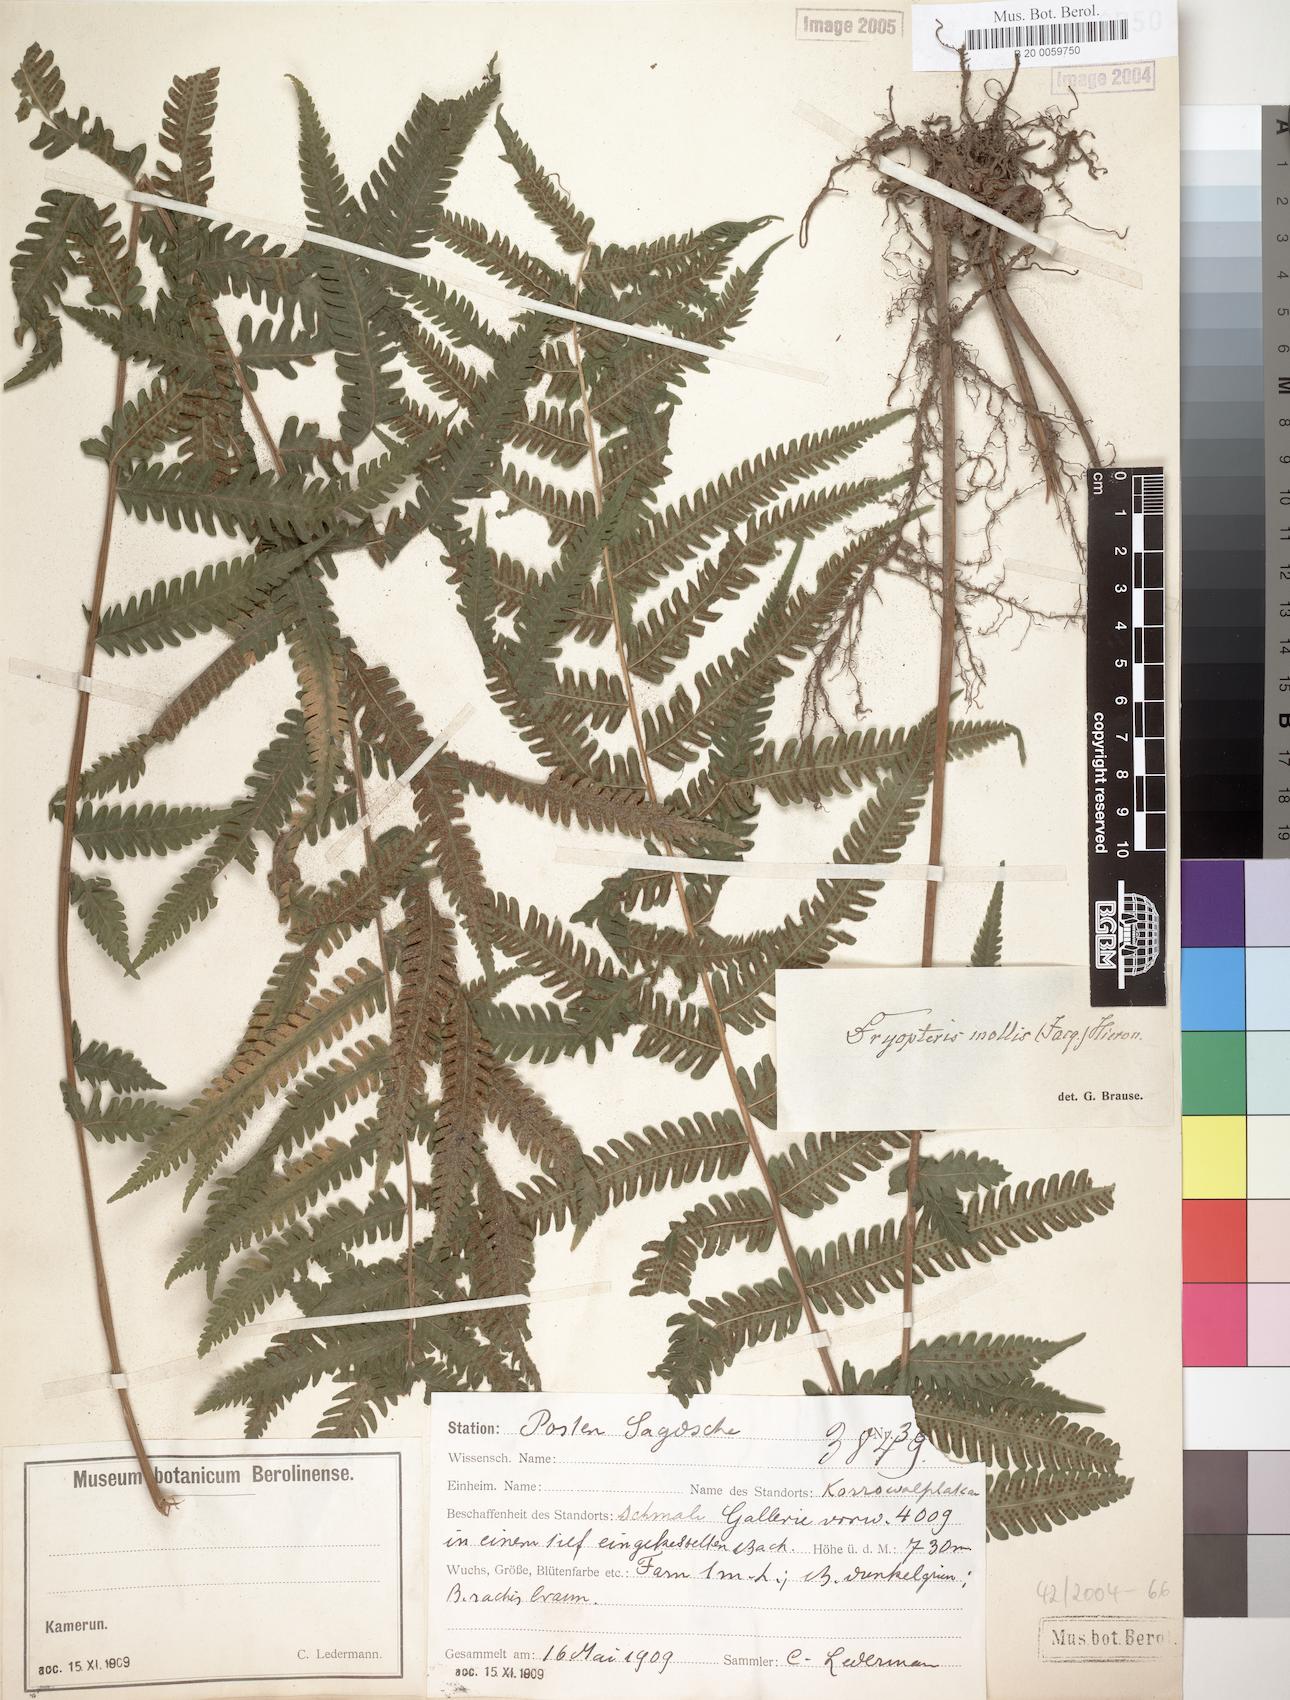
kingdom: Plantae
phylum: Tracheophyta
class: Polypodiopsida
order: Polypodiales
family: Thelypteridaceae
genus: Christella
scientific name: Christella dentata
